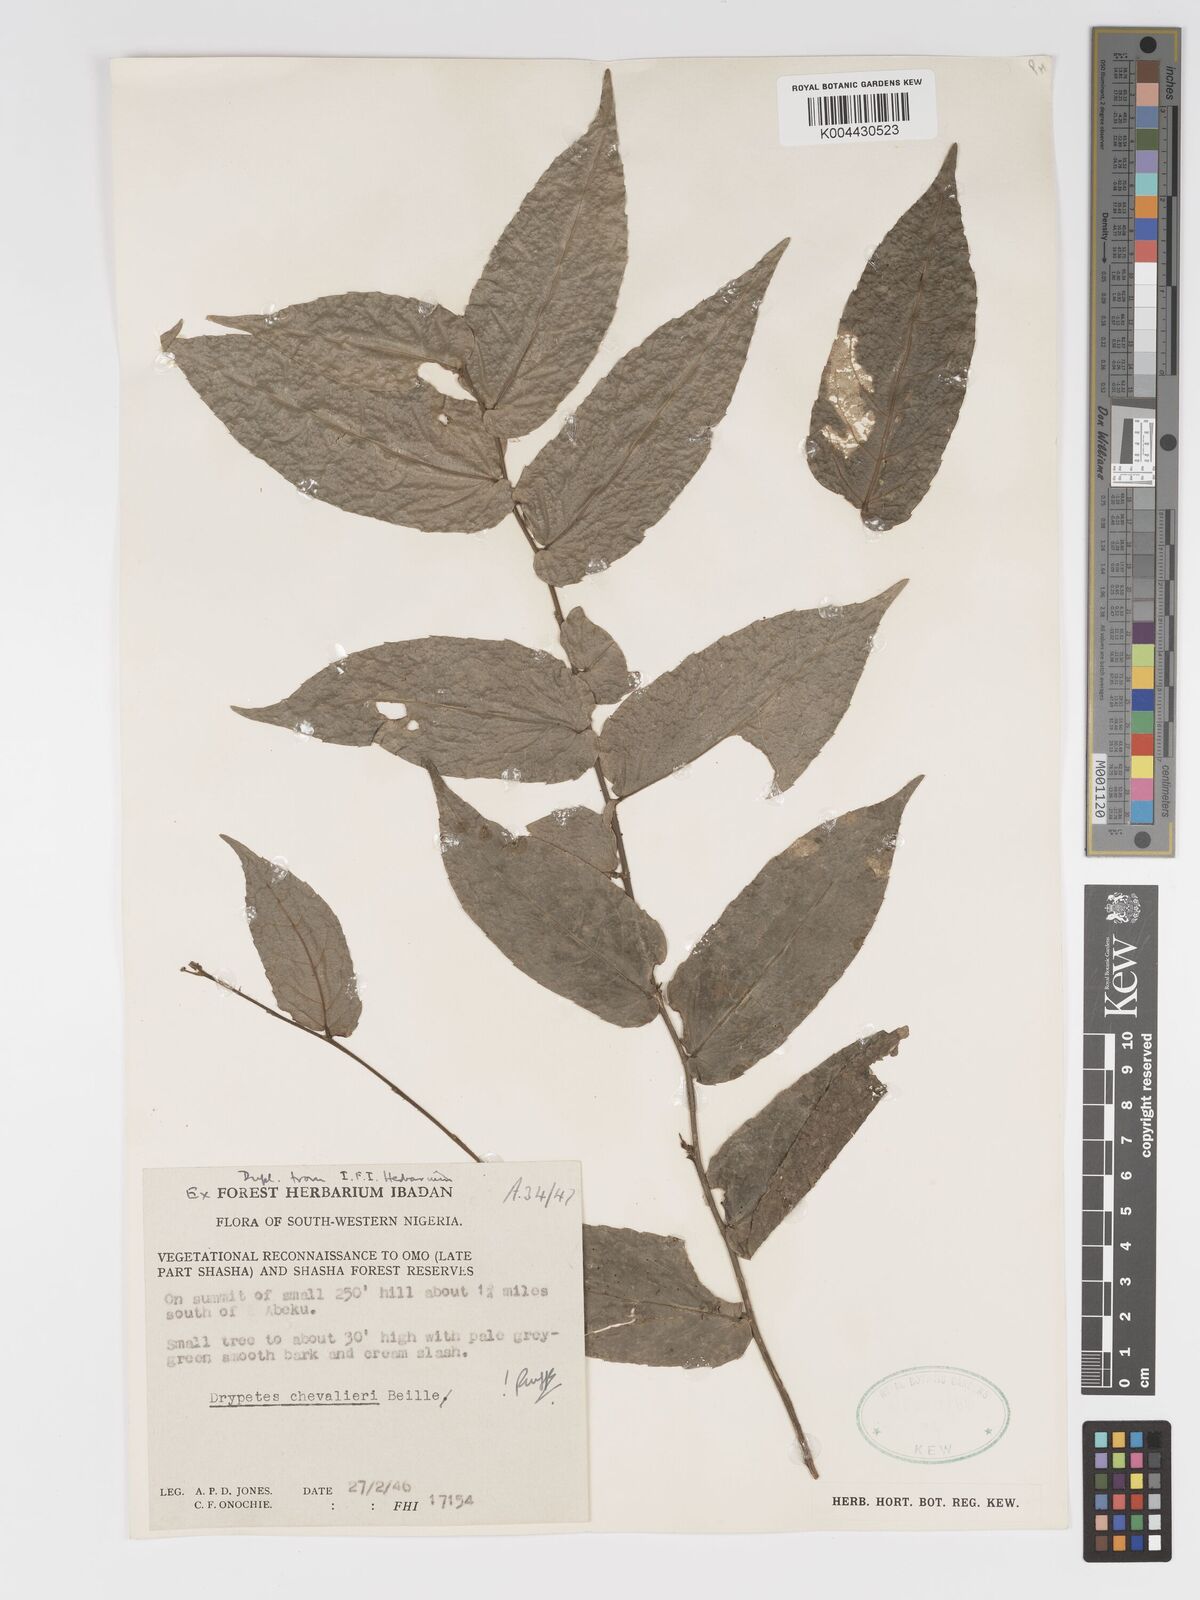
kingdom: Plantae
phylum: Tracheophyta
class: Magnoliopsida
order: Malpighiales
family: Putranjivaceae
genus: Drypetes
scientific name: Drypetes chevalieri
